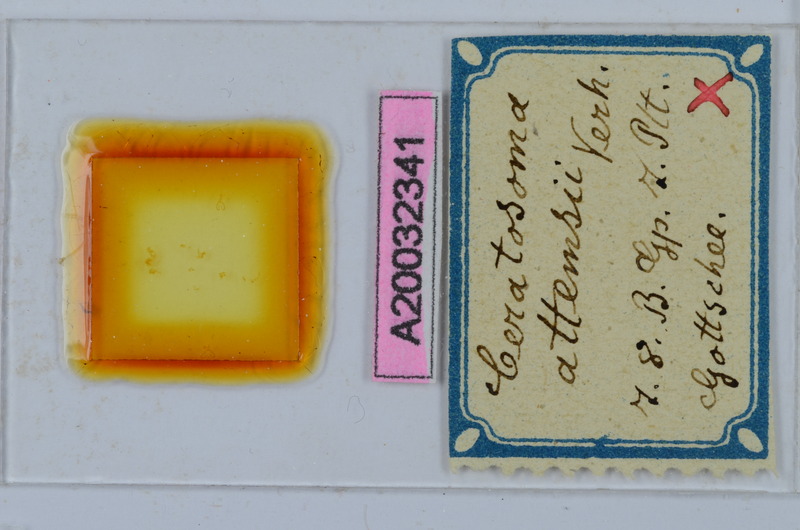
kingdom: Animalia
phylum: Arthropoda
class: Diplopoda
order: Chordeumatida
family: Craspedosomatidae
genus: Ochogona
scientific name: Ochogona attemsi
